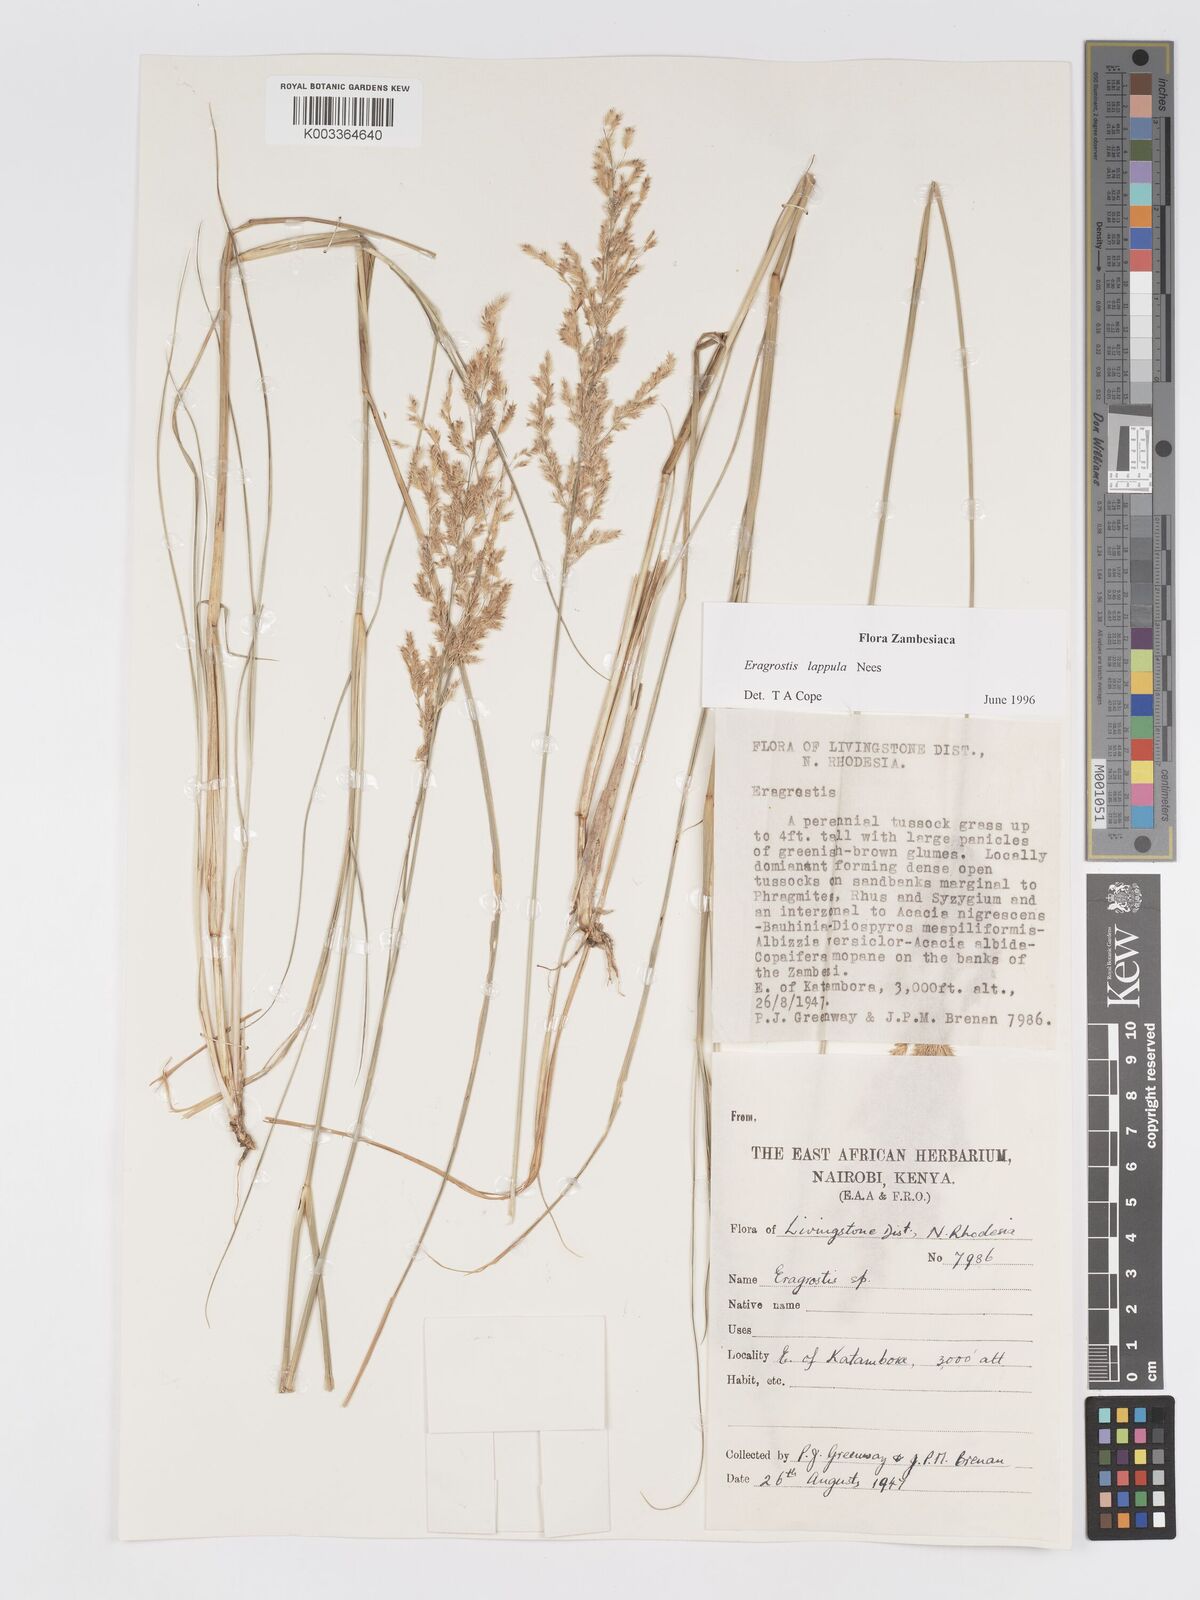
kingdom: Plantae
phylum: Tracheophyta
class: Liliopsida
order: Poales
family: Poaceae
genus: Eragrostis
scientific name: Eragrostis lappula
